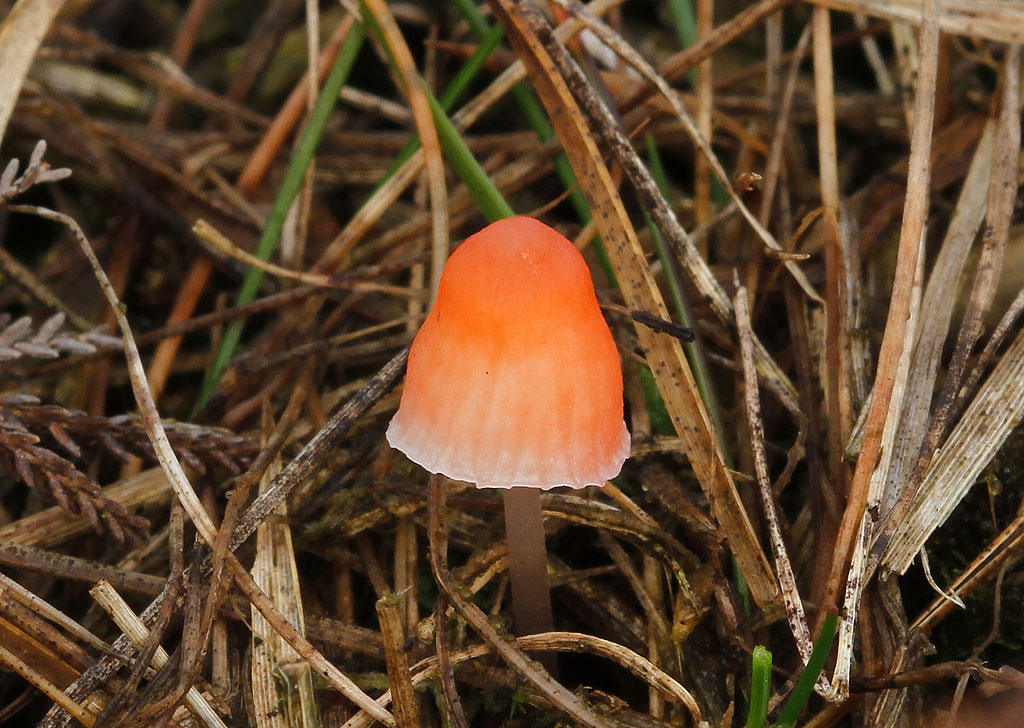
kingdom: Fungi
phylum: Basidiomycota
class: Agaricomycetes
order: Agaricales
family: Mycenaceae
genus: Atheniella
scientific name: Atheniella adonis
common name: rønnerød huesvamp
